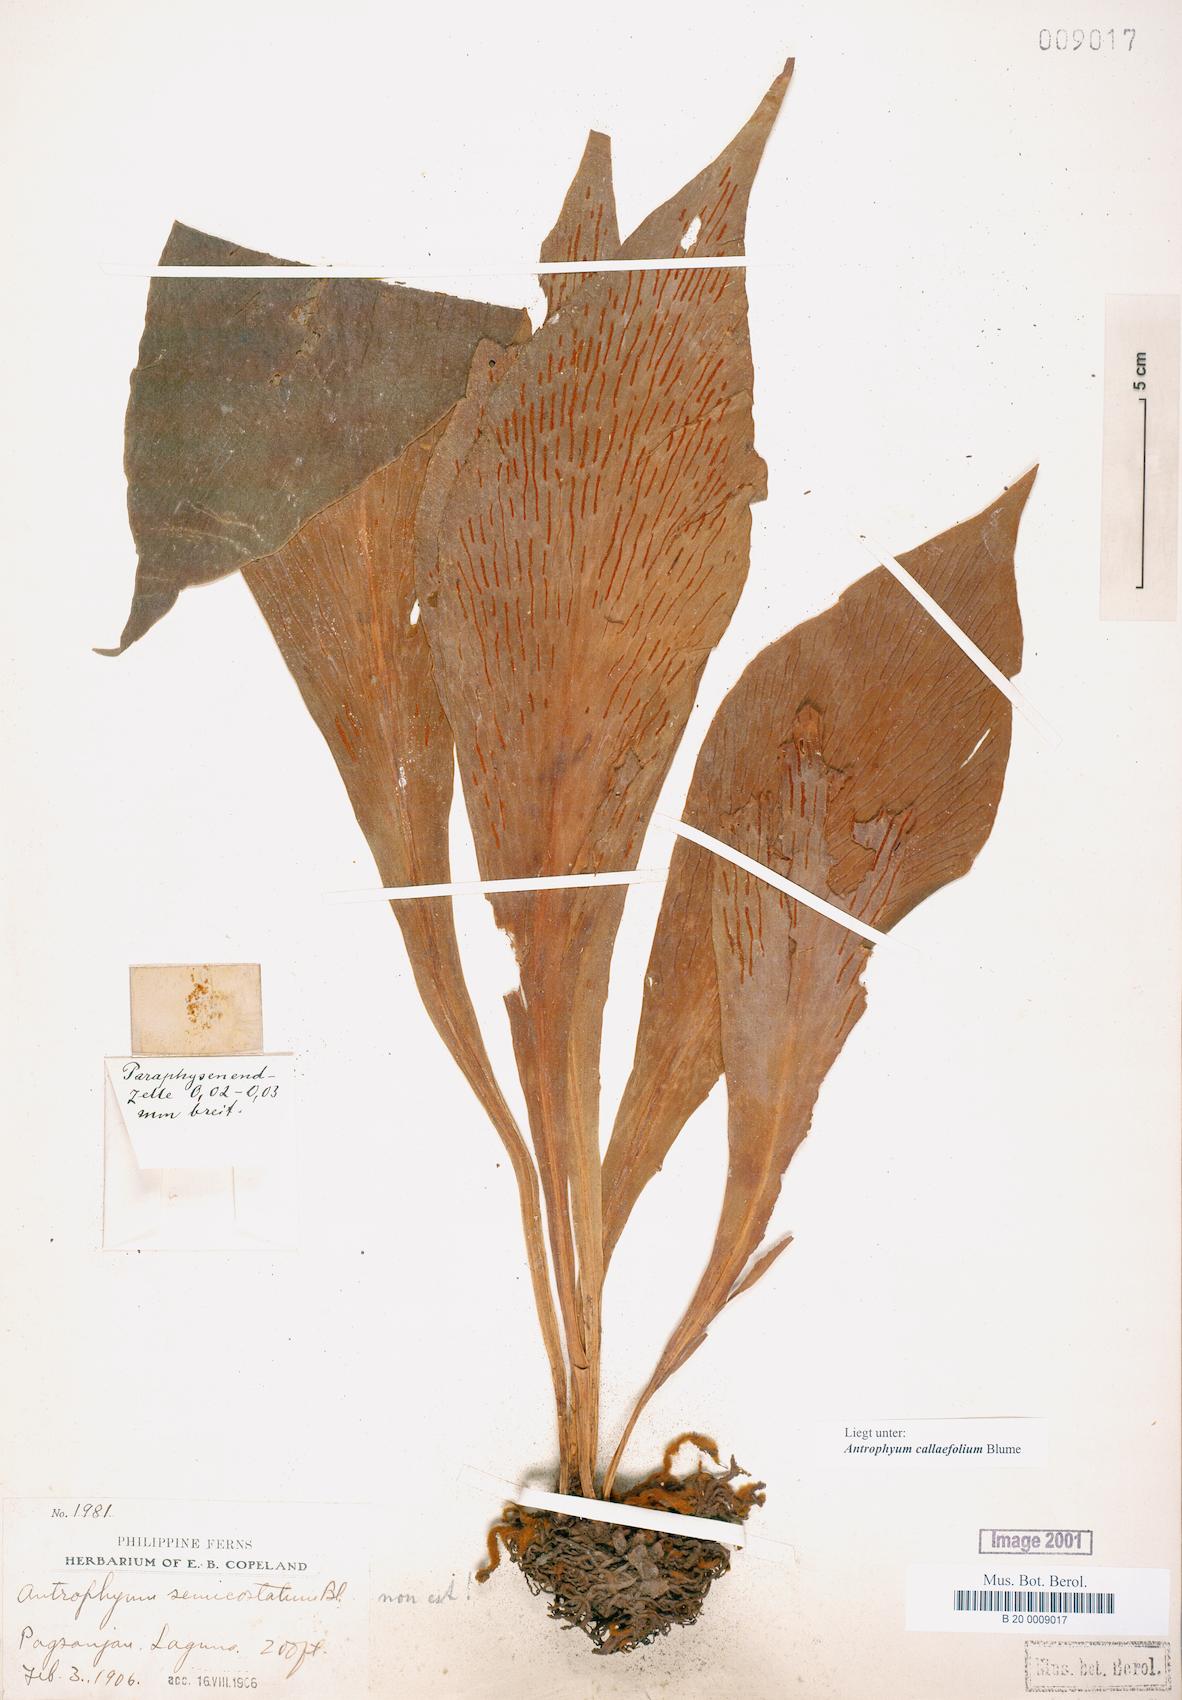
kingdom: Plantae
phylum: Tracheophyta
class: Polypodiopsida
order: Polypodiales
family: Pteridaceae
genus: Antrophyum
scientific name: Antrophyum callifolium
